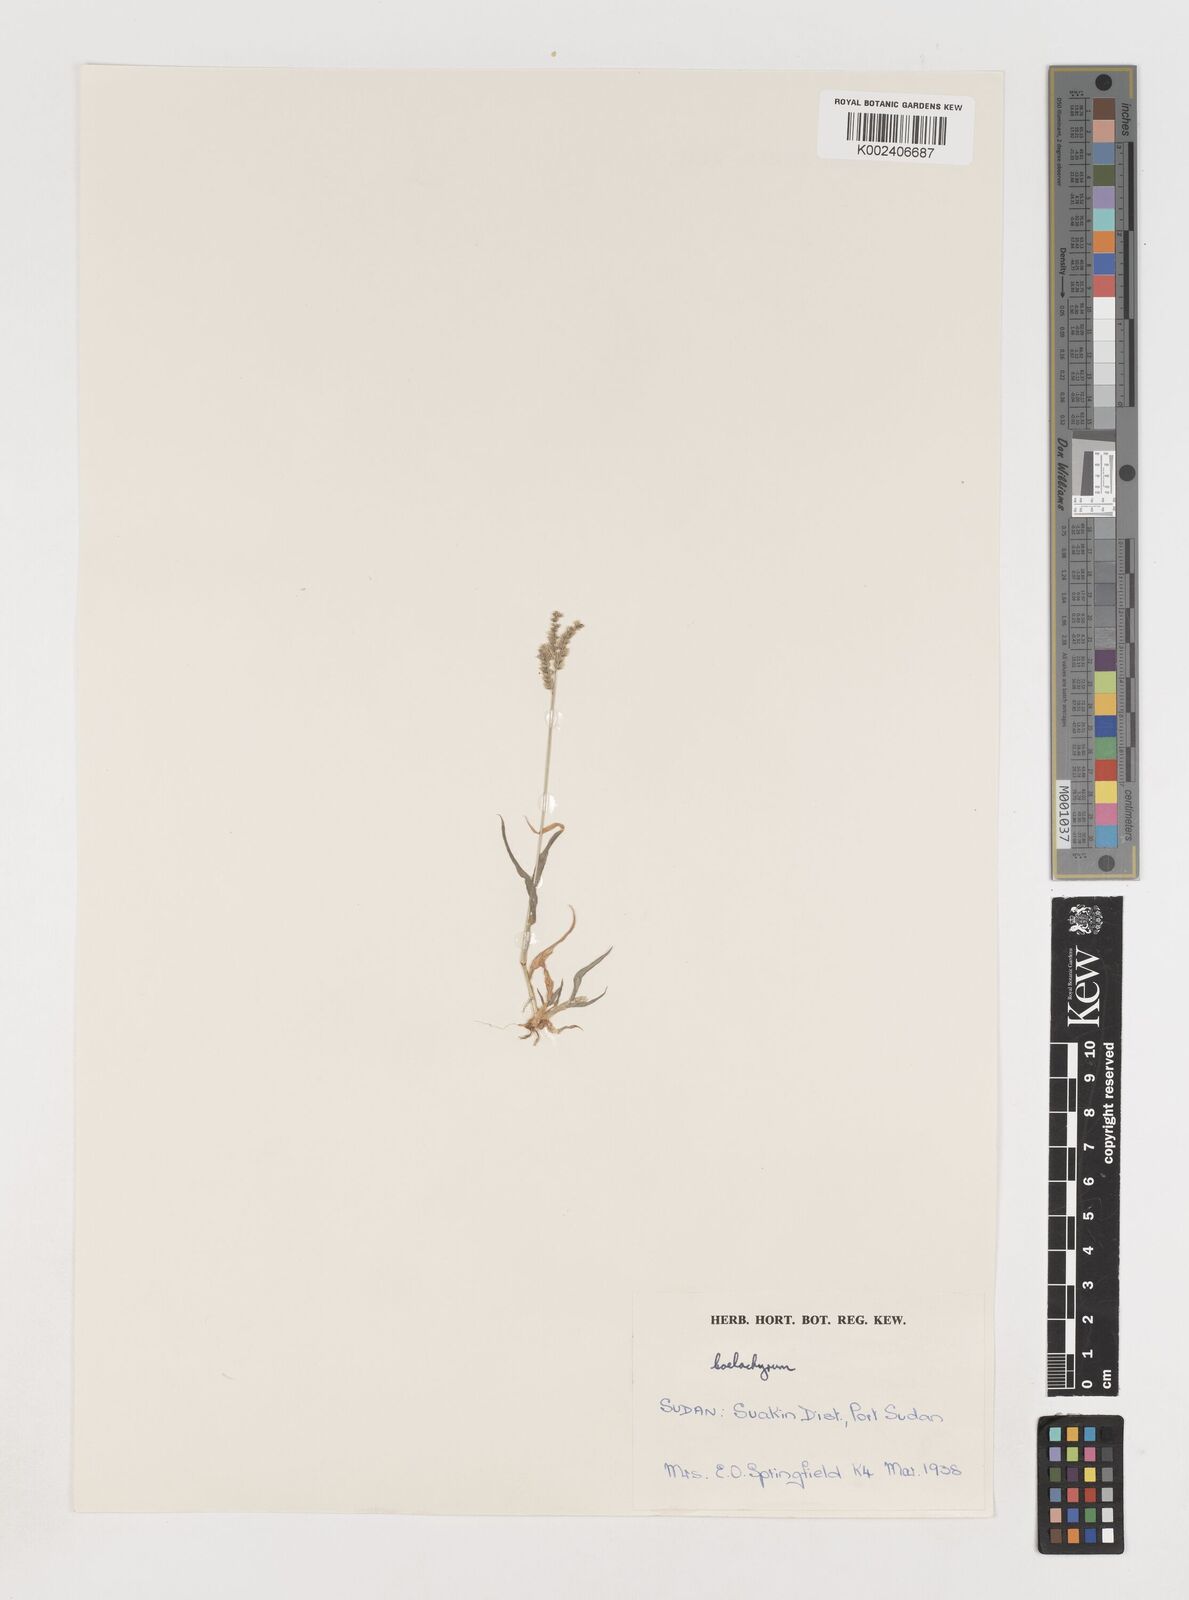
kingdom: Plantae
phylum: Tracheophyta
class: Liliopsida
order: Poales
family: Poaceae
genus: Coelachyrum
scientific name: Coelachyrum brevifolium
